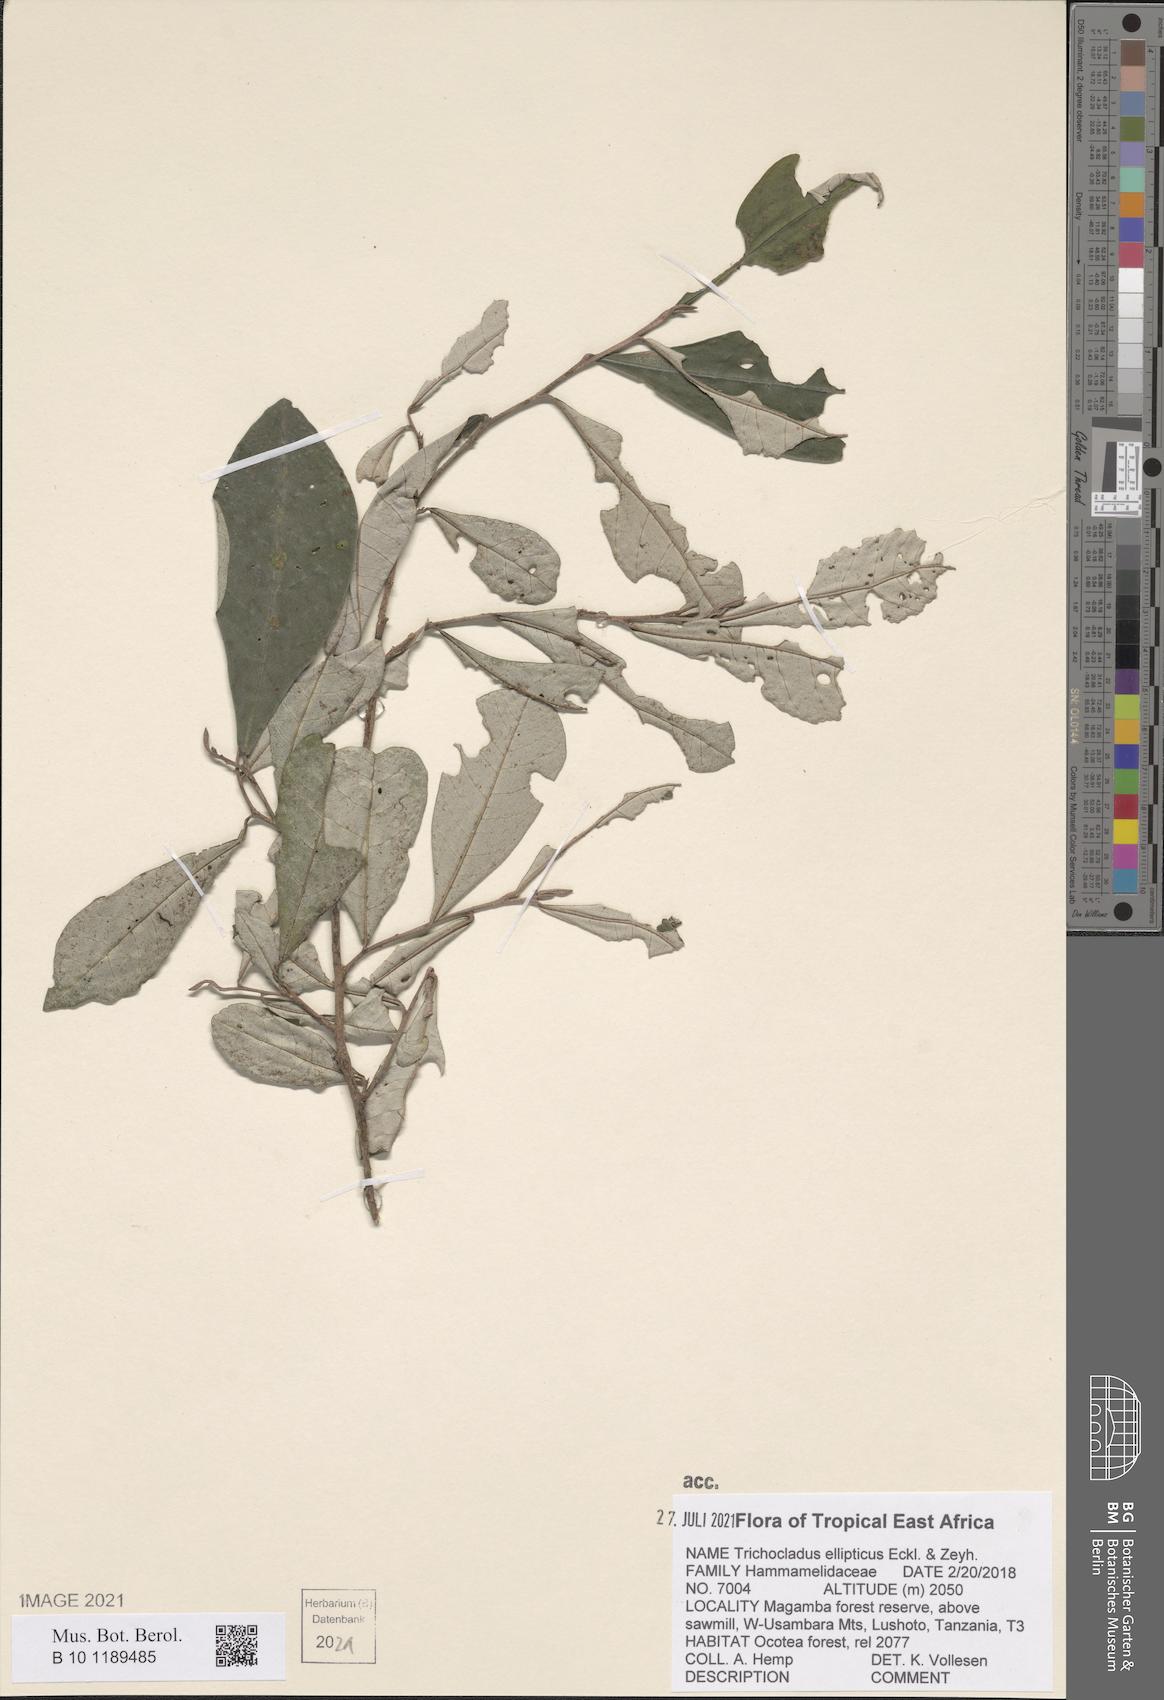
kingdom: Plantae
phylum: Tracheophyta
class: Magnoliopsida
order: Saxifragales
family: Hamamelidaceae
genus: Trichocladus
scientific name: Trichocladus ellipticus
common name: White witch-hazel
